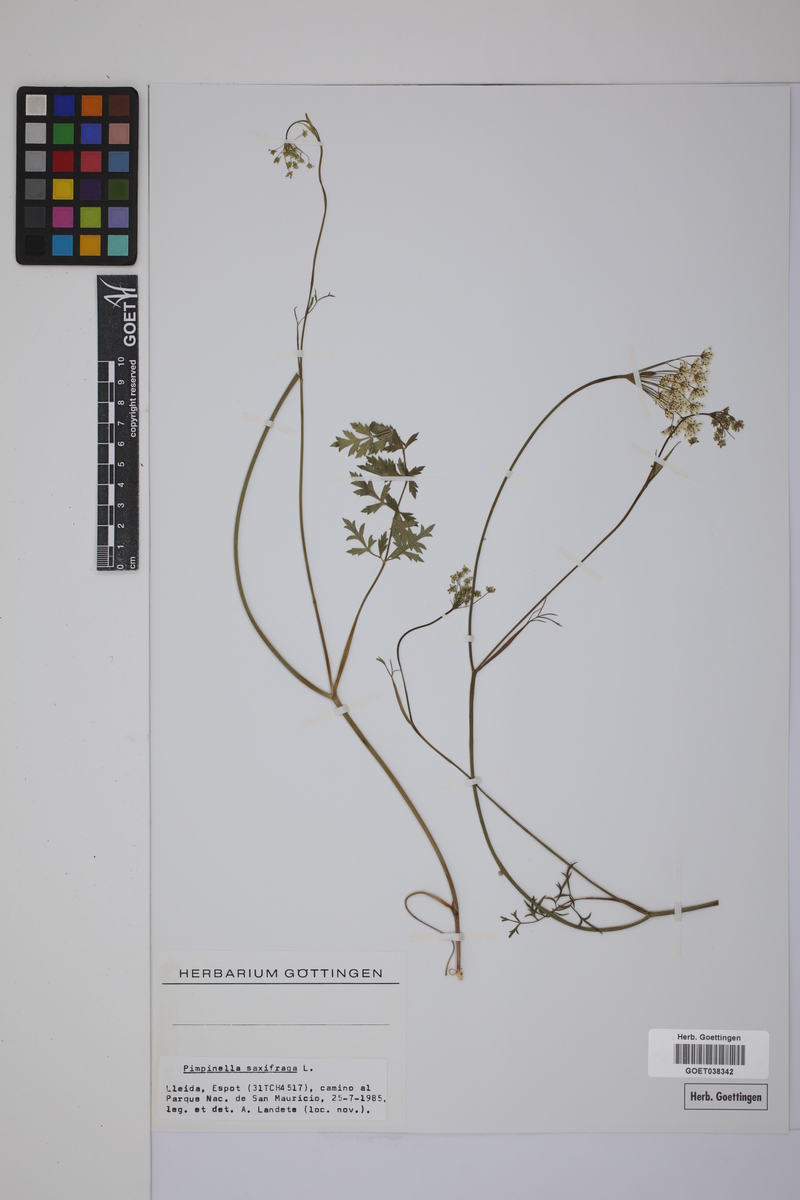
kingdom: Plantae
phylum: Tracheophyta
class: Magnoliopsida
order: Apiales
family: Apiaceae
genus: Pimpinella
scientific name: Pimpinella saxifraga
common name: Burnet-saxifrage
